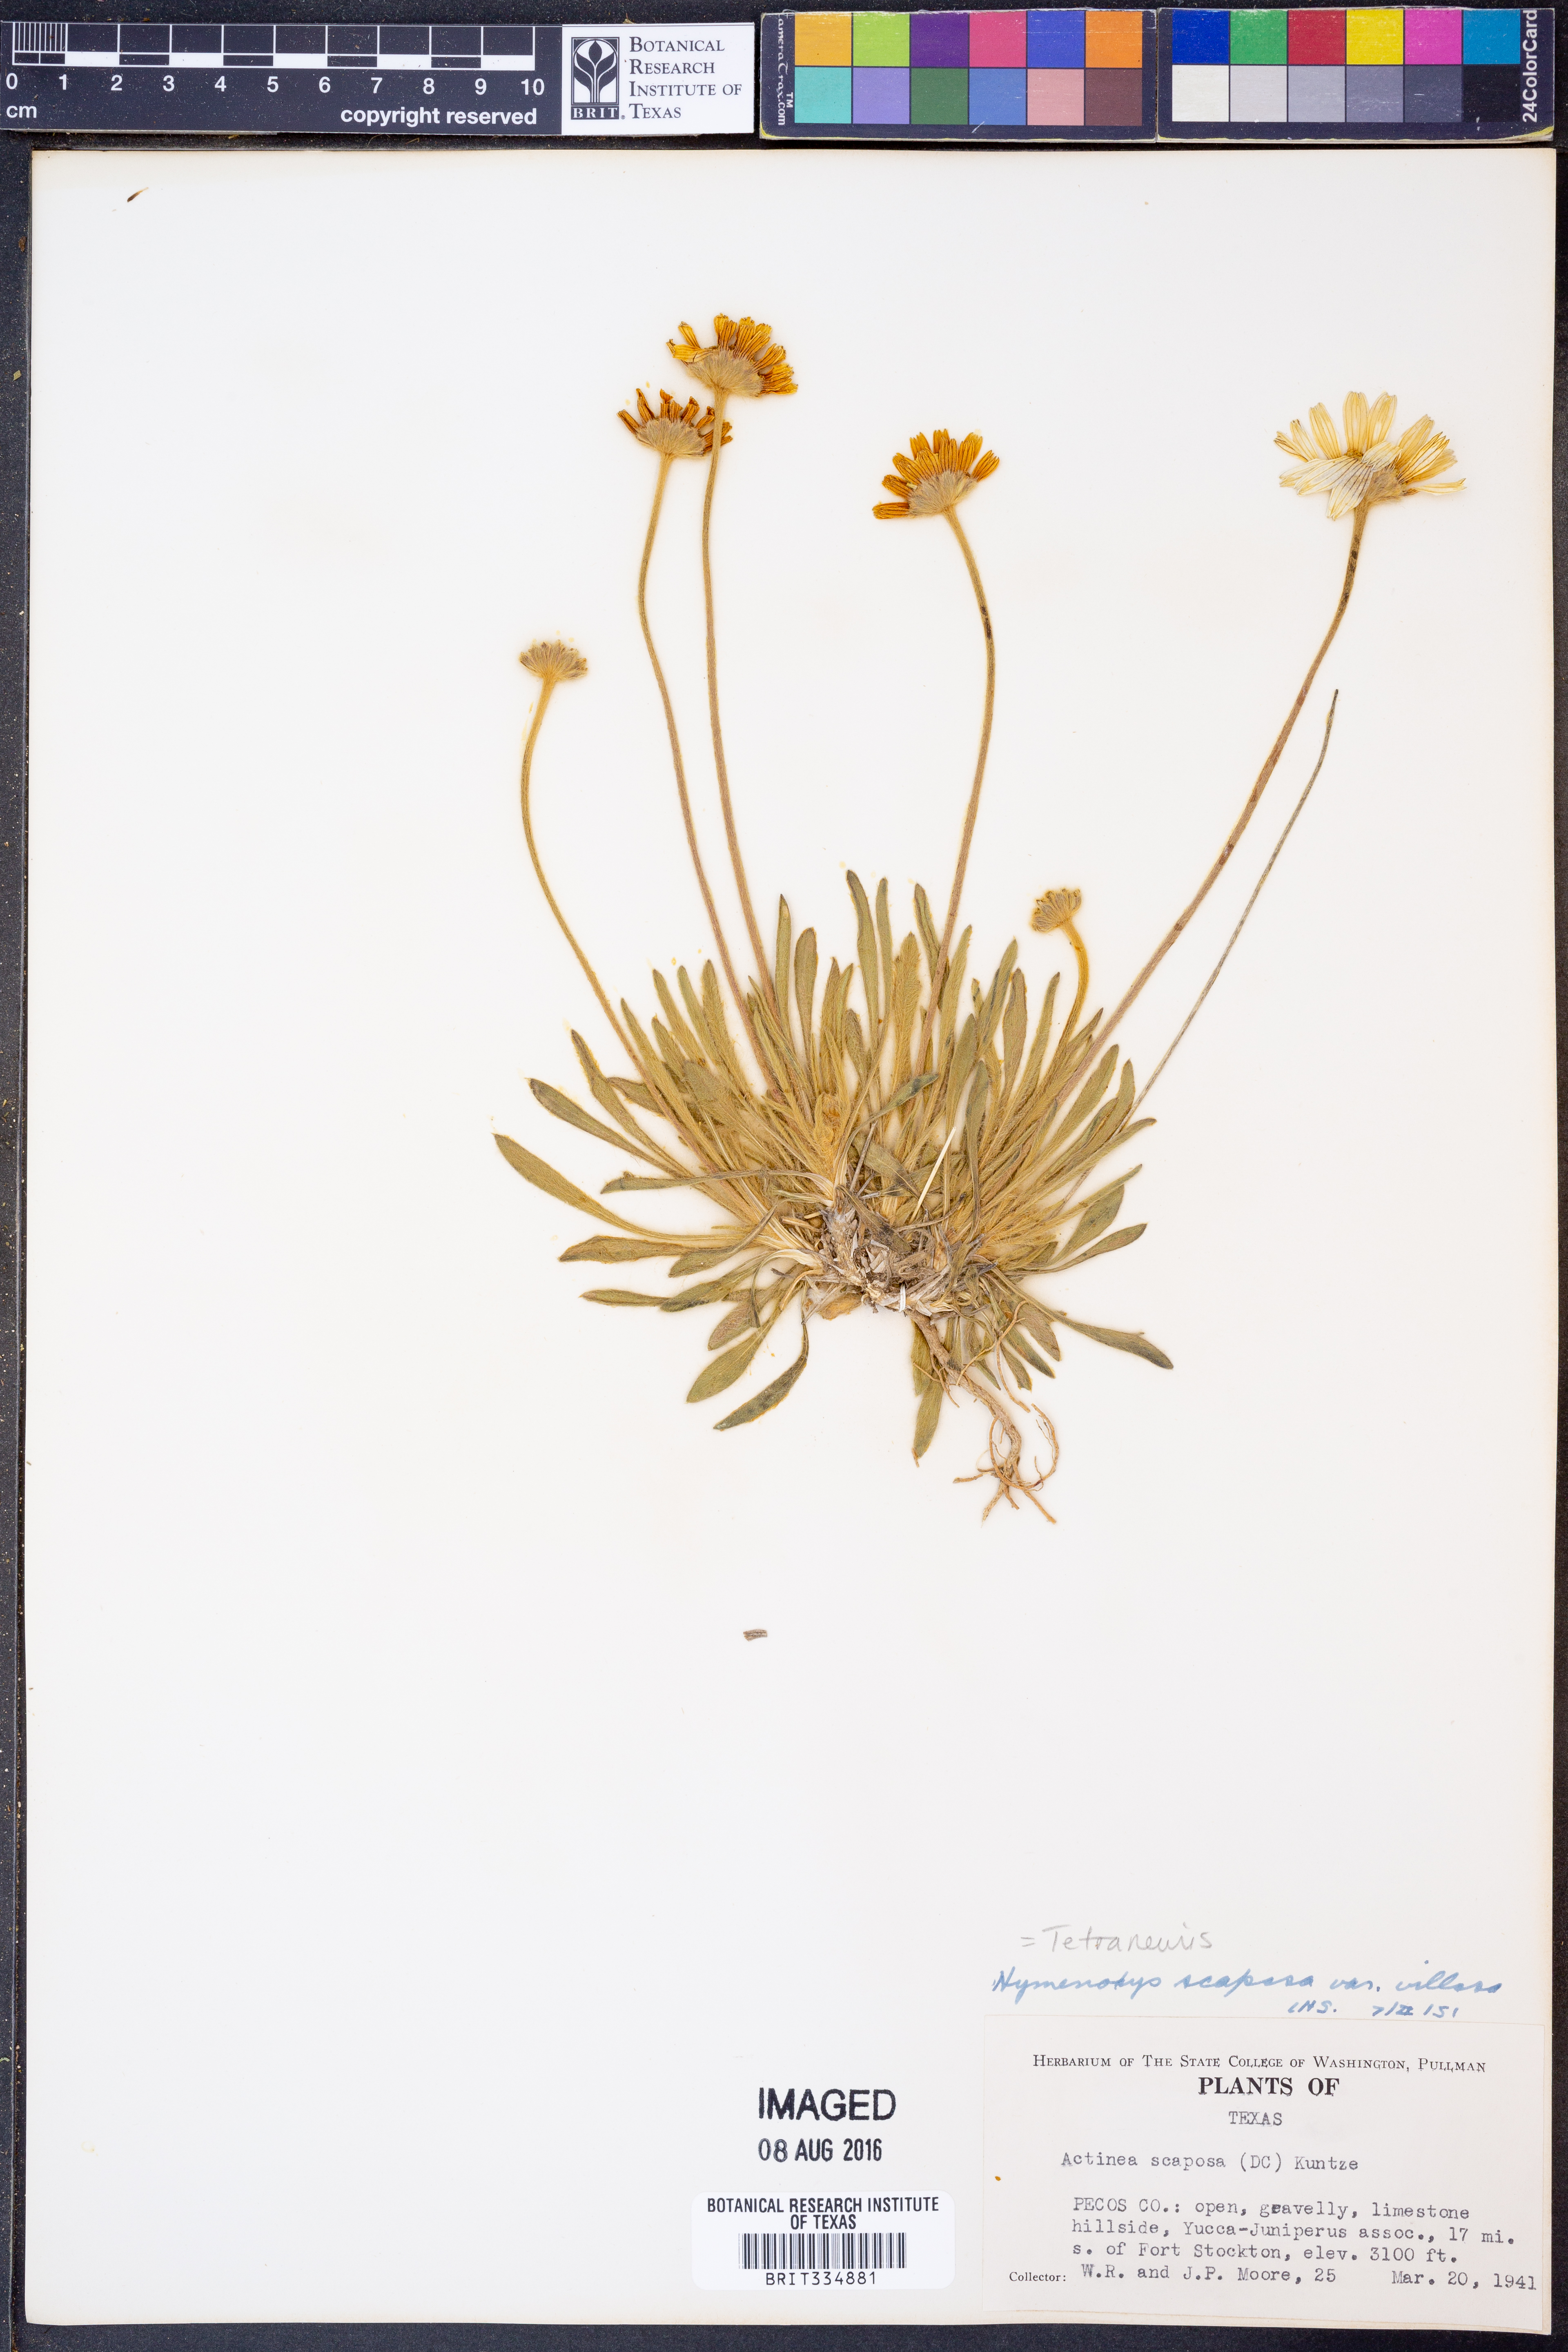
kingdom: Plantae
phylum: Tracheophyta
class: Magnoliopsida
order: Asterales
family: Asteraceae
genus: Tetraneuris
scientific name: Tetraneuris scaposa
